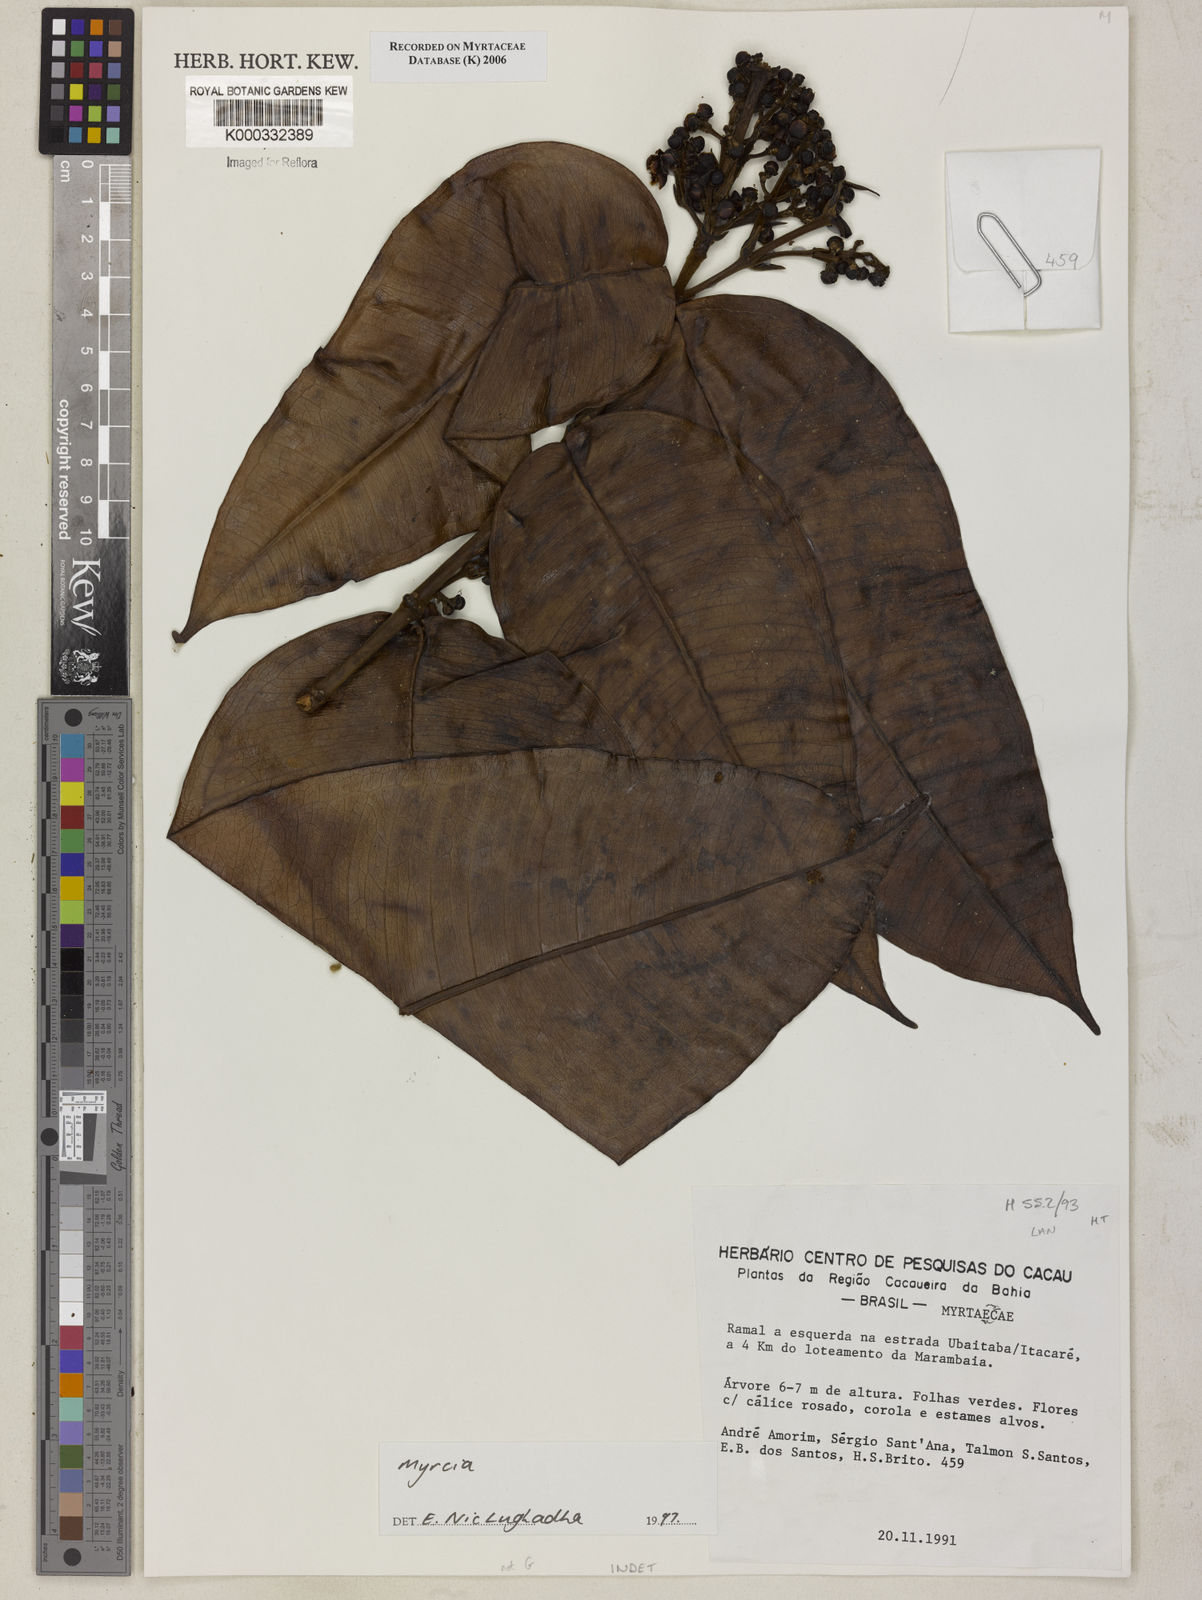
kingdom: Plantae
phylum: Tracheophyta
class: Magnoliopsida
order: Myrtales
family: Myrtaceae
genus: Myrcia
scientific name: Myrcia
